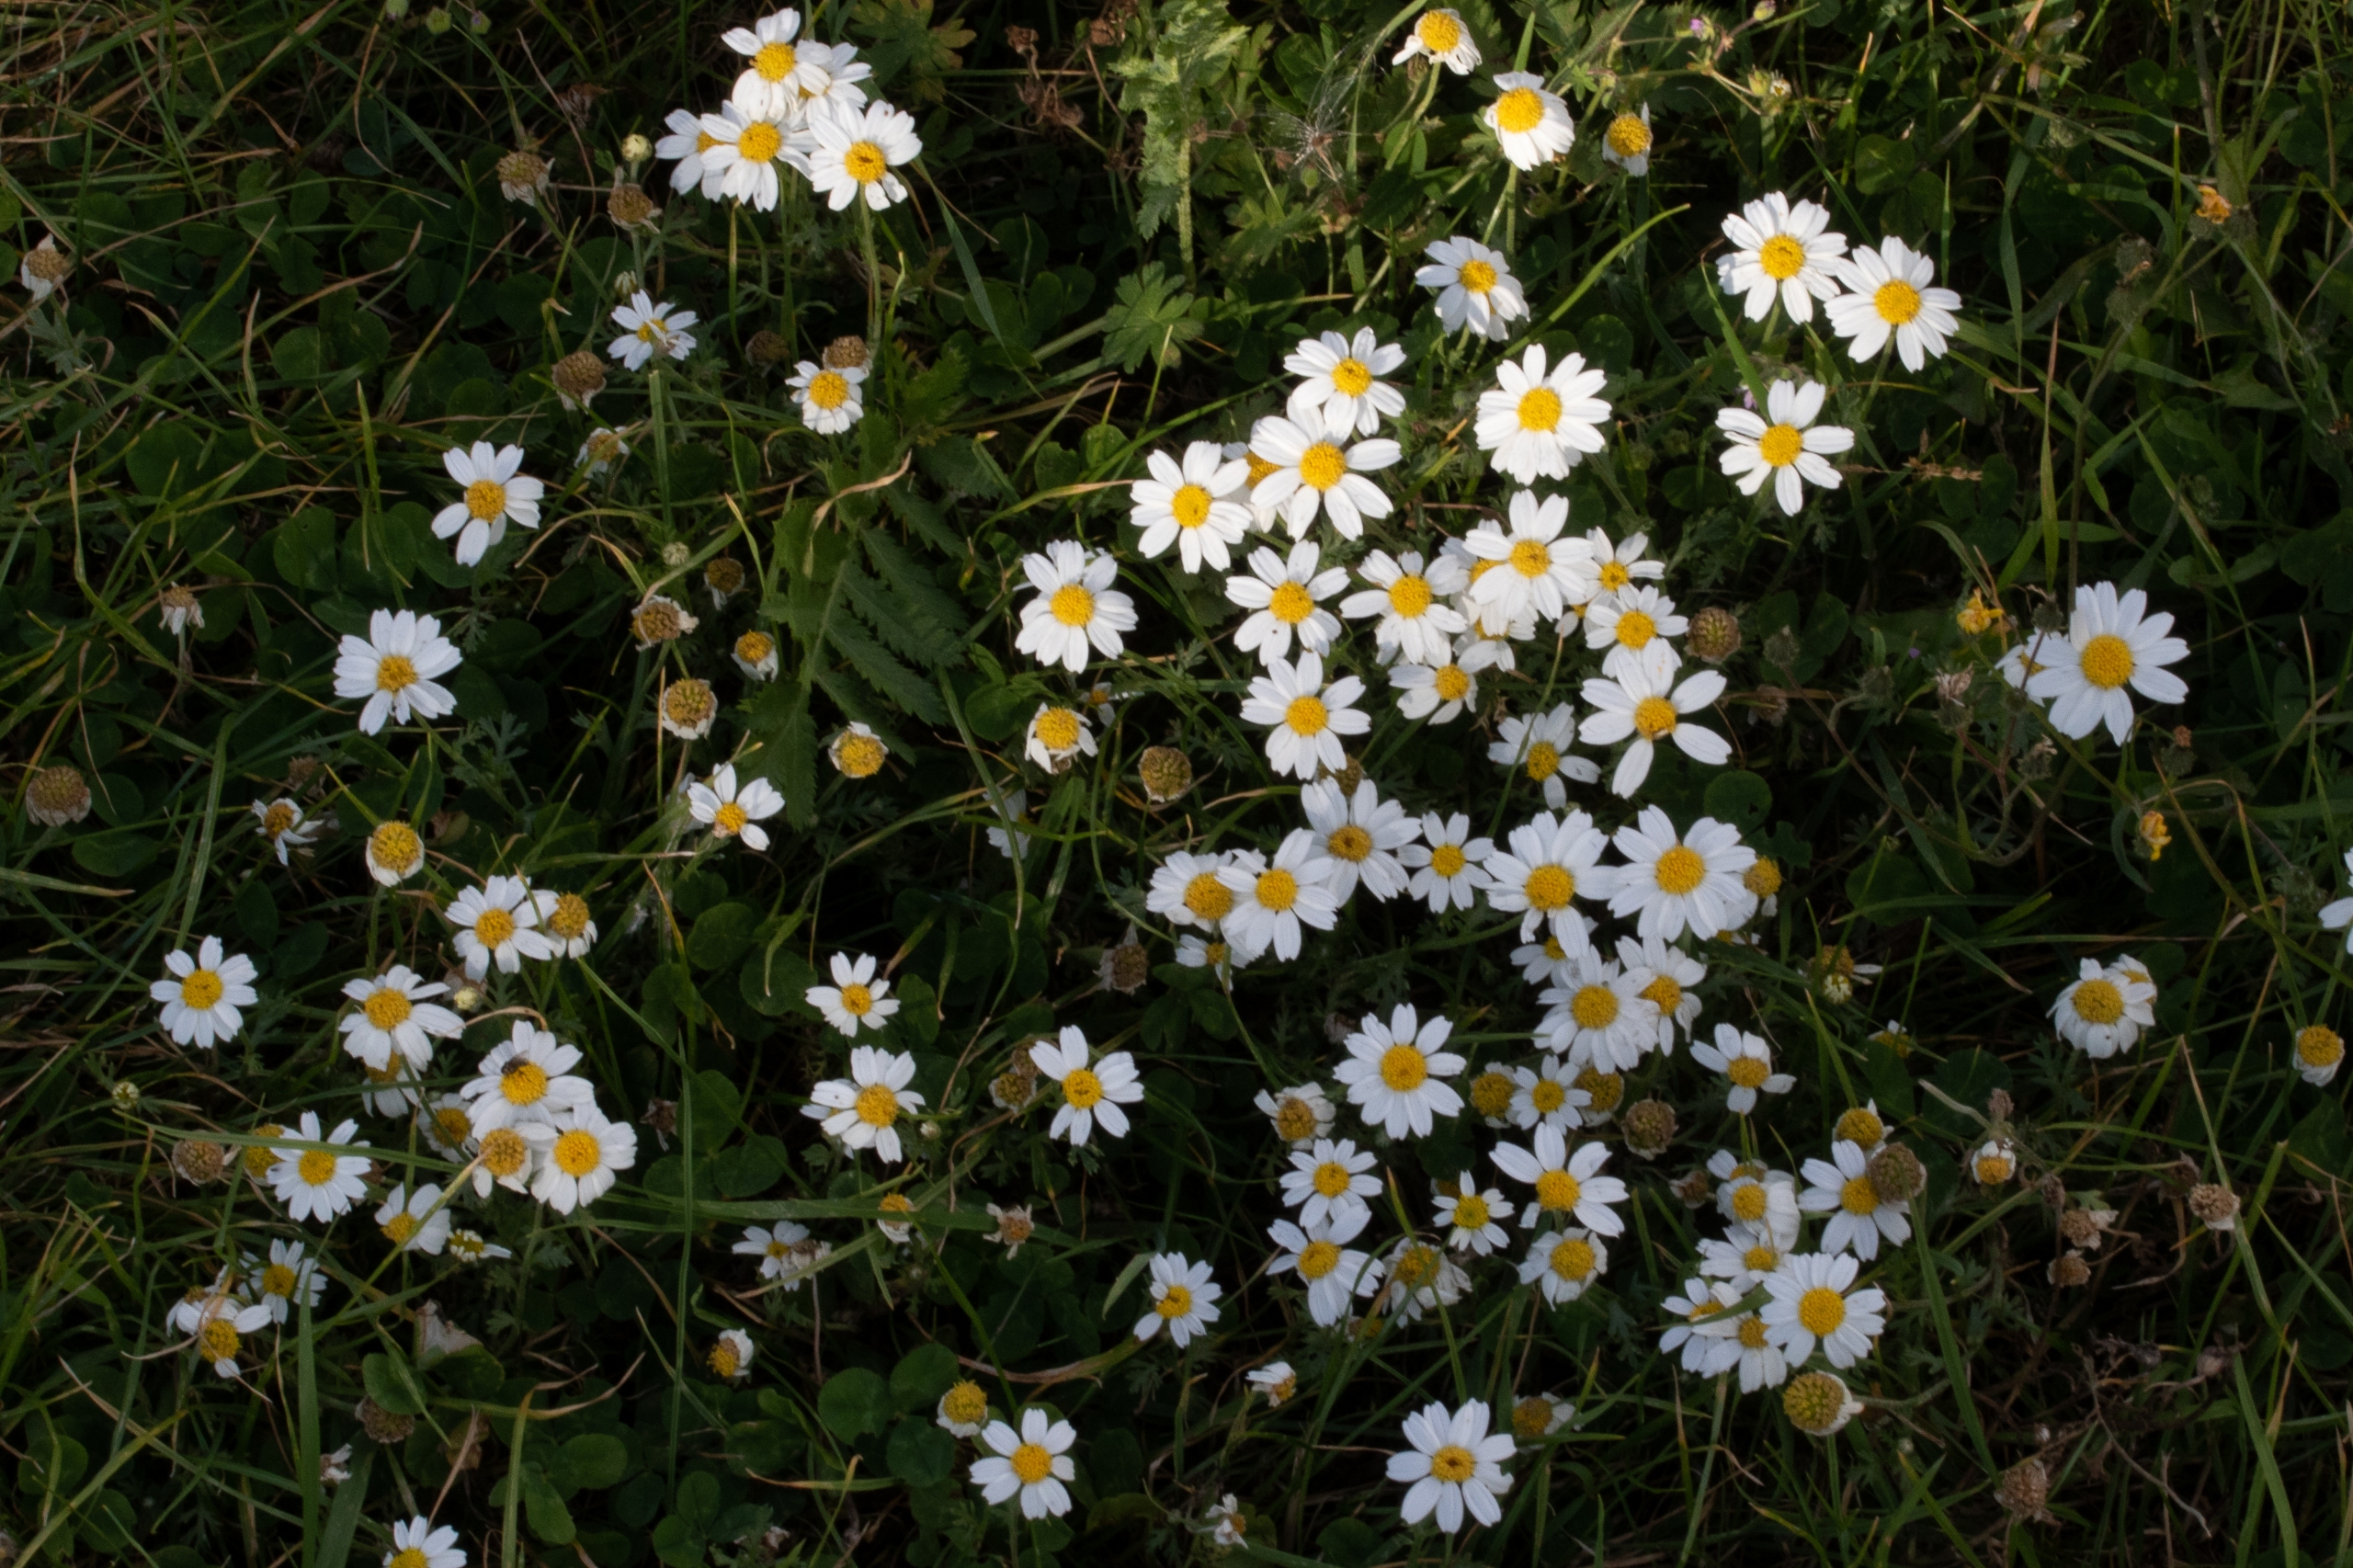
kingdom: Plantae
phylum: Tracheophyta
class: Magnoliopsida
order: Asterales
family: Asteraceae
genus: Anthemis
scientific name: Anthemis arvensis
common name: Ager-gåseurt
